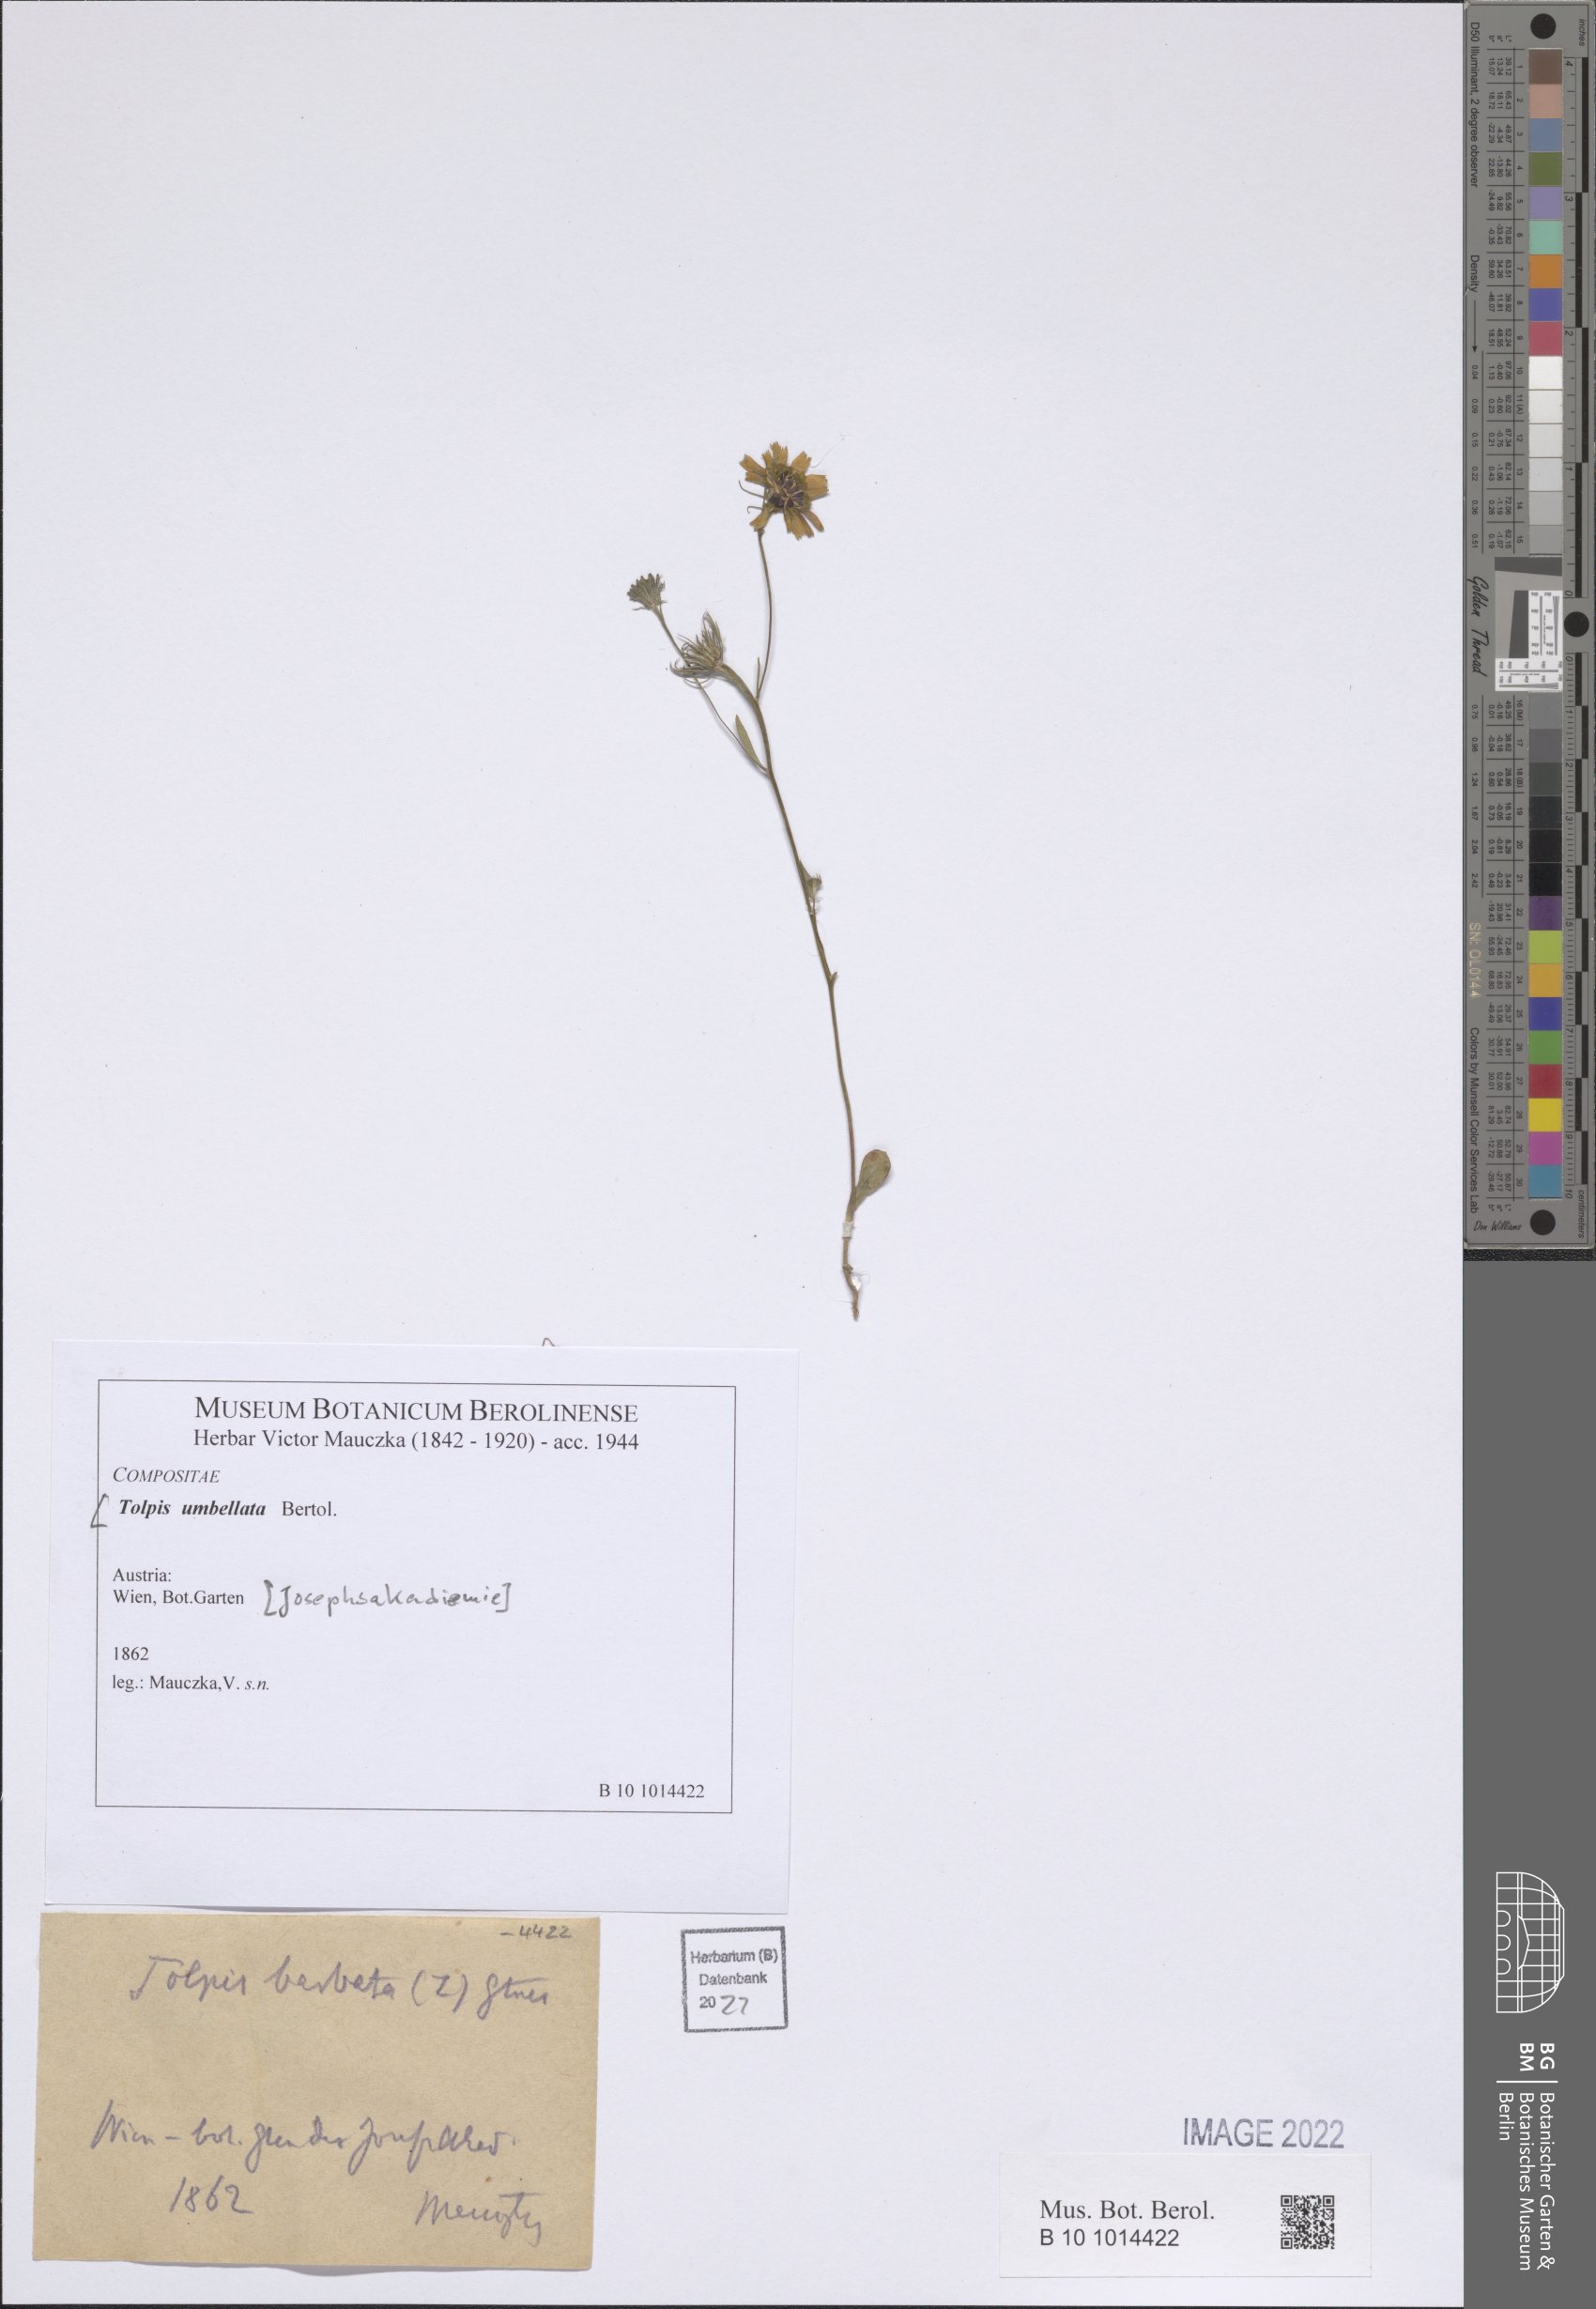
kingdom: Plantae
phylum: Tracheophyta
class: Magnoliopsida
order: Asterales
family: Asteraceae
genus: Tolpis
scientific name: Tolpis umbellata
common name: Yellow hawkweed
